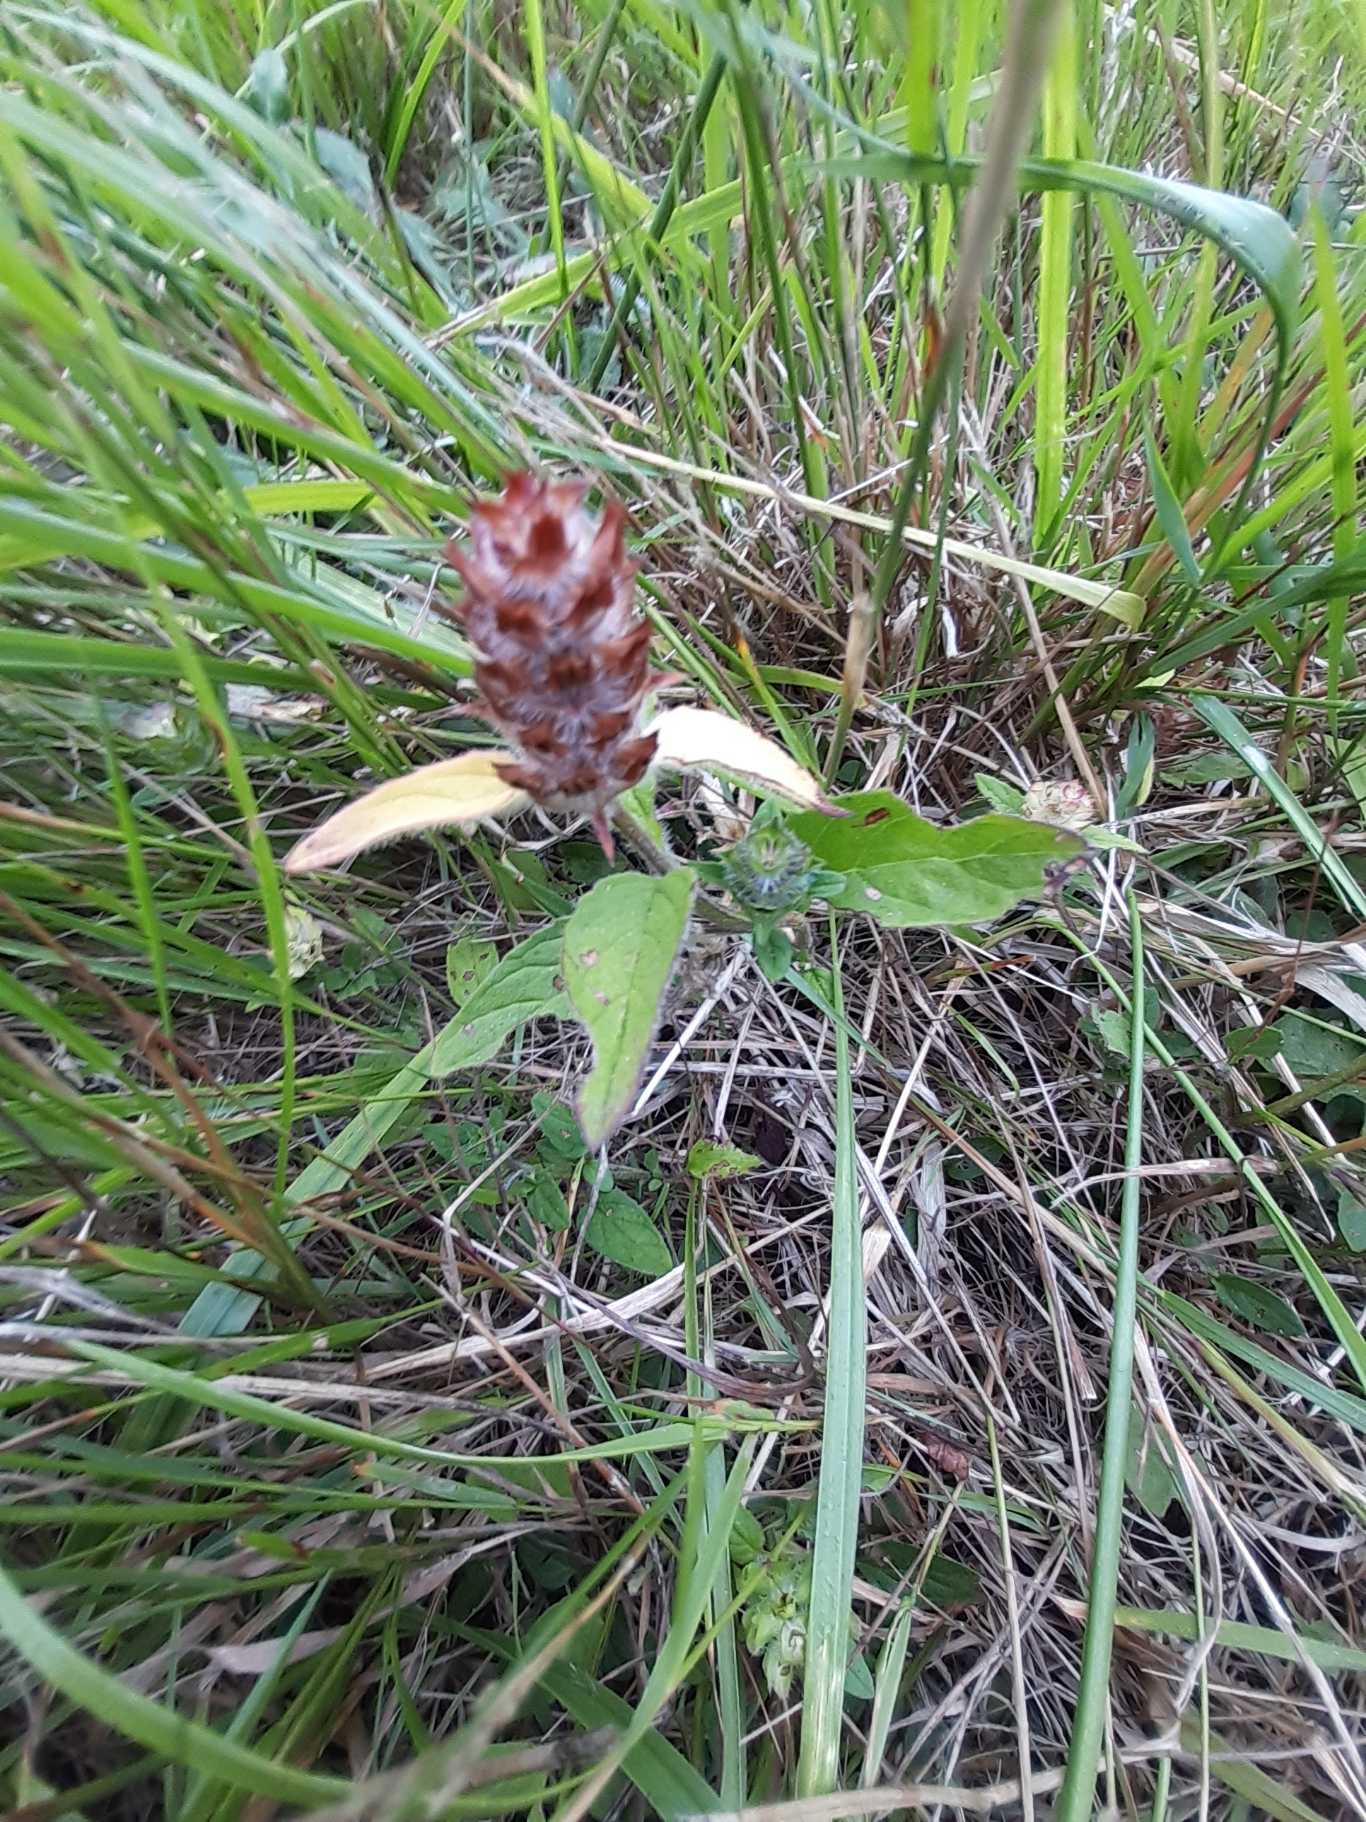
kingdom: Plantae
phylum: Tracheophyta
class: Magnoliopsida
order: Lamiales
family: Lamiaceae
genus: Prunella
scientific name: Prunella vulgaris
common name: Almindelig brunelle
